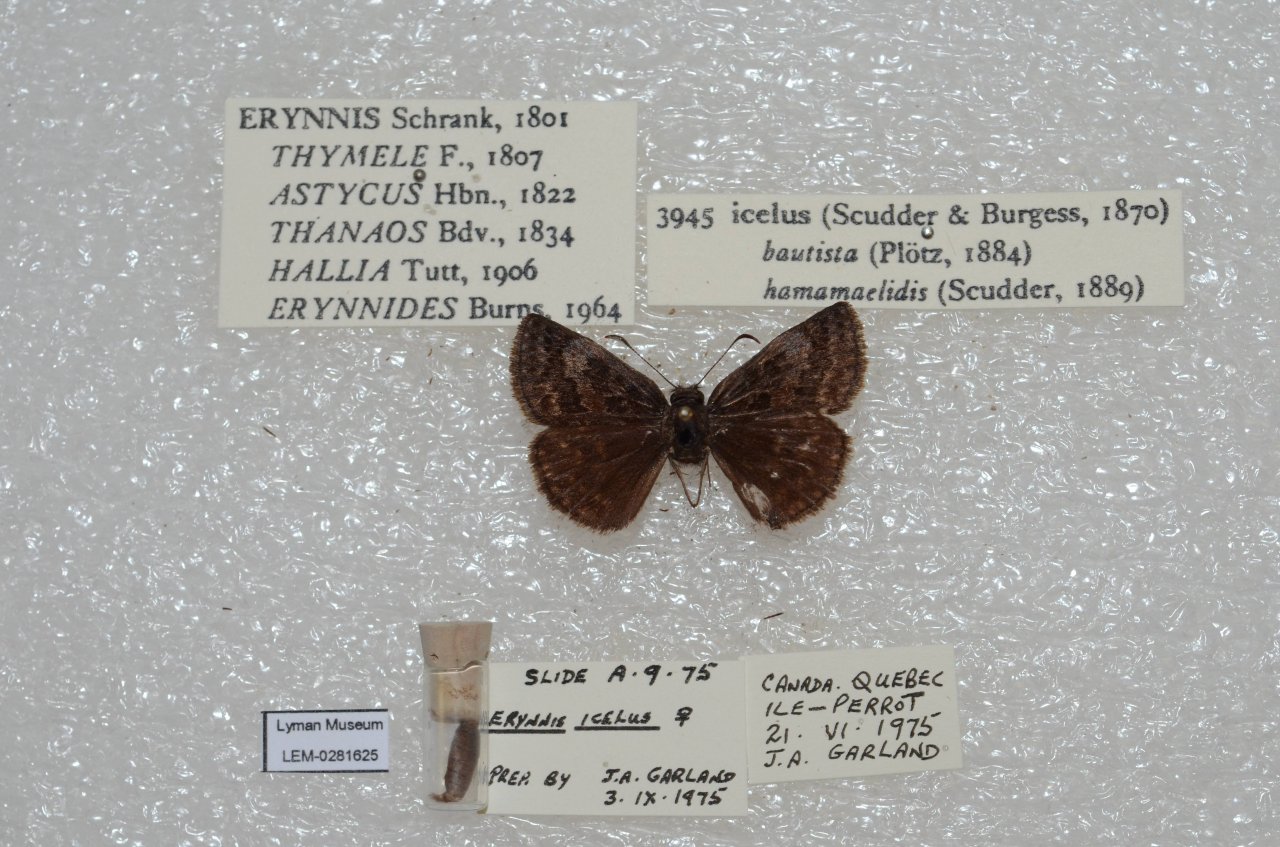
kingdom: Animalia
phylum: Arthropoda
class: Insecta
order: Lepidoptera
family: Hesperiidae
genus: Erynnis
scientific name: Erynnis icelus
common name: Dreamy Duskywing
